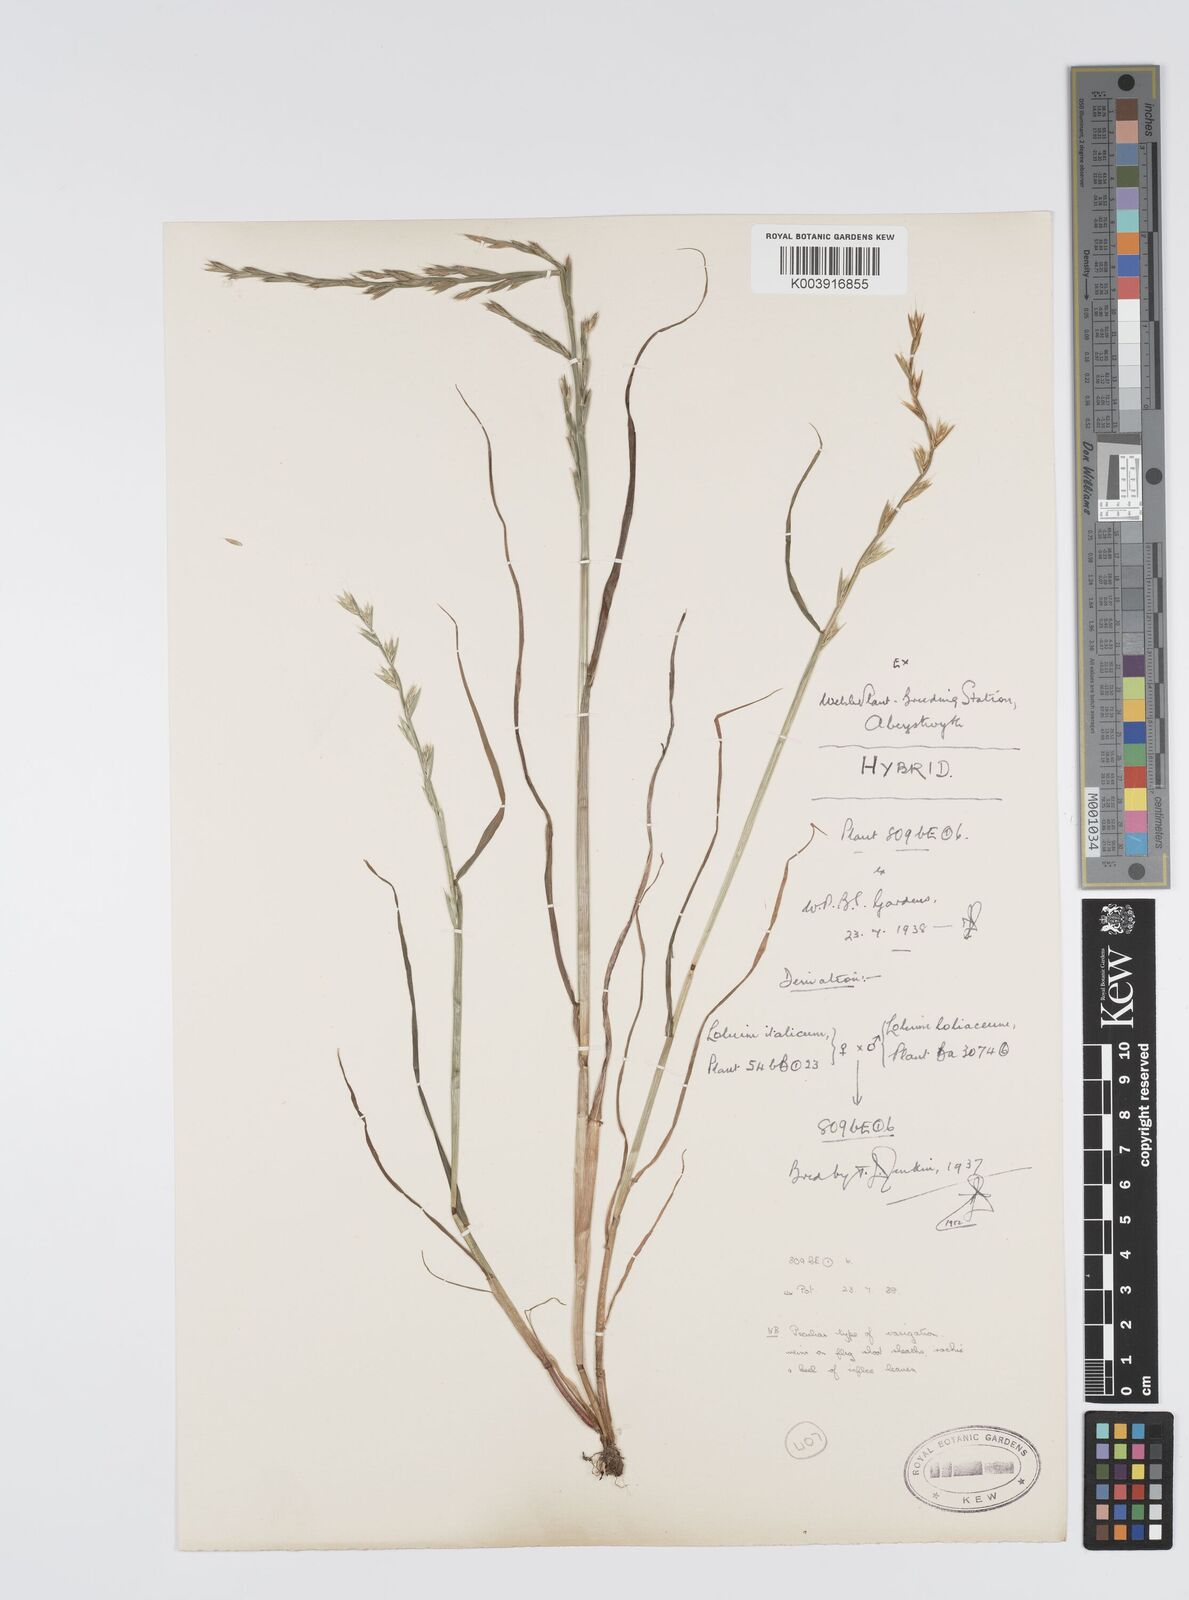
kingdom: Plantae
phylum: Tracheophyta
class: Liliopsida
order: Poales
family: Poaceae
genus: Lolium
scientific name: Lolium multiflorum
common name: Annual ryegrass
